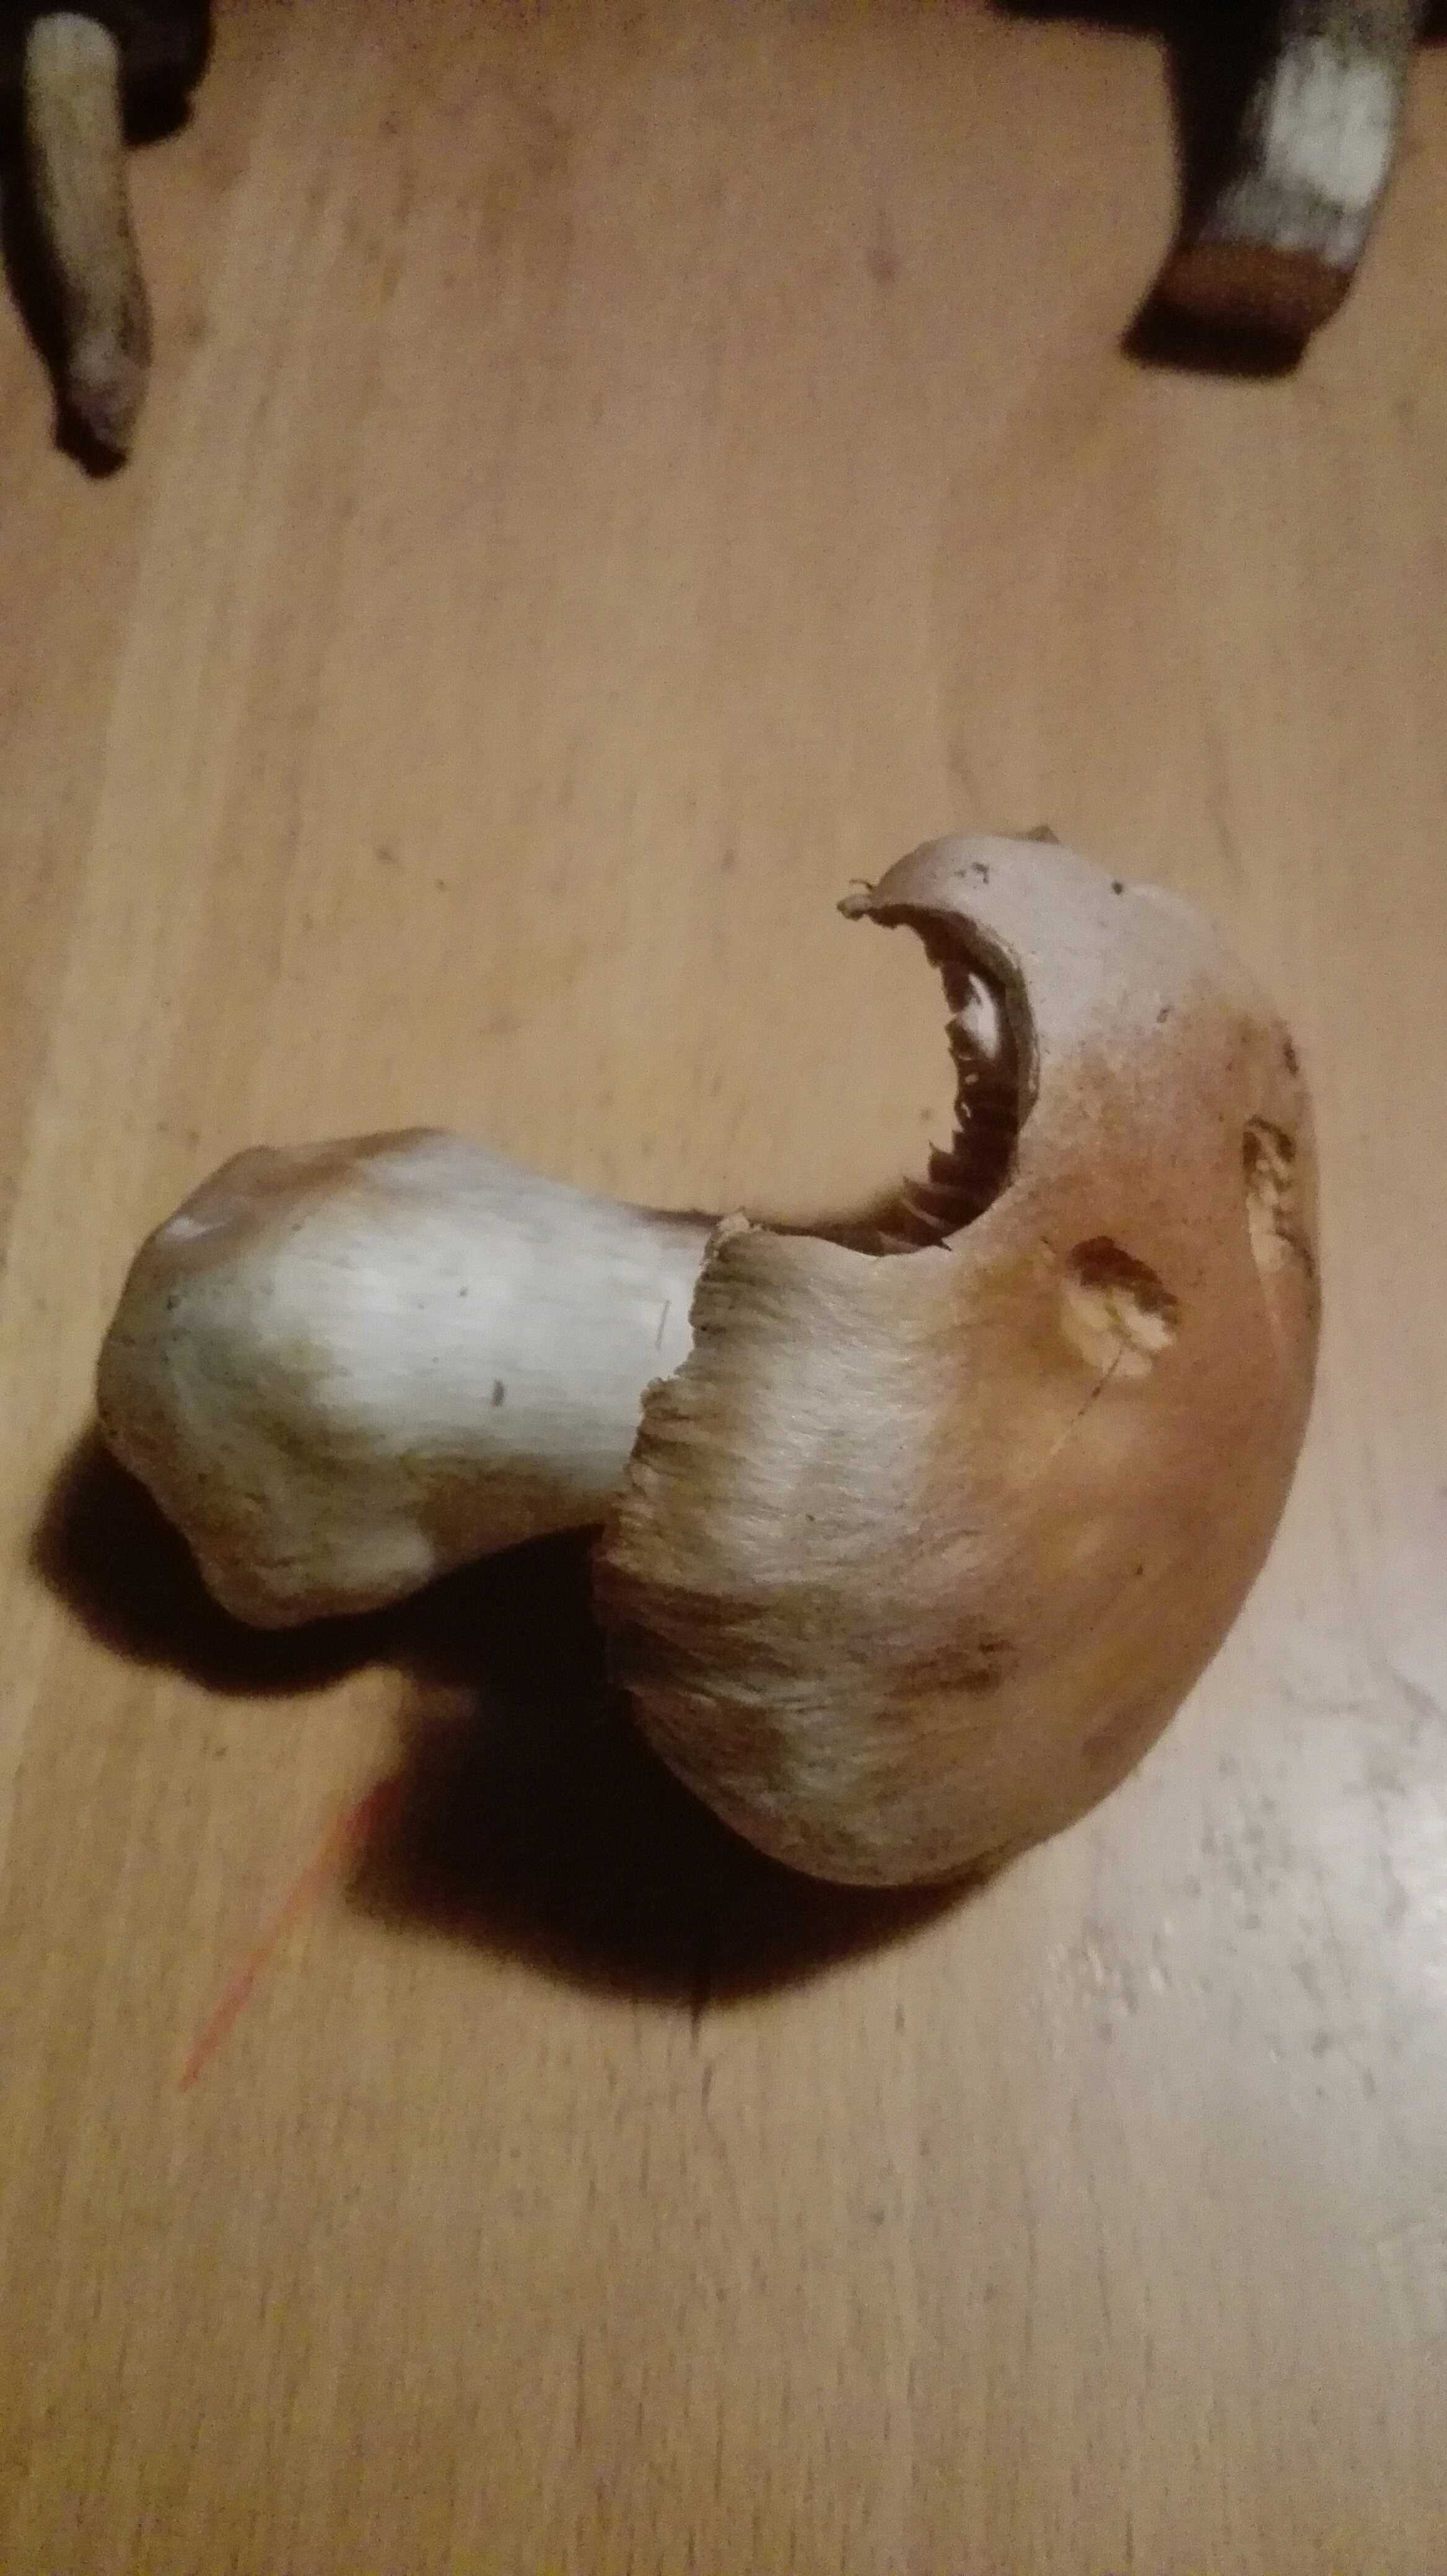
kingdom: Fungi
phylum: Basidiomycota
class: Agaricomycetes
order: Agaricales
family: Cortinariaceae
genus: Cortinarius
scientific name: Cortinarius
